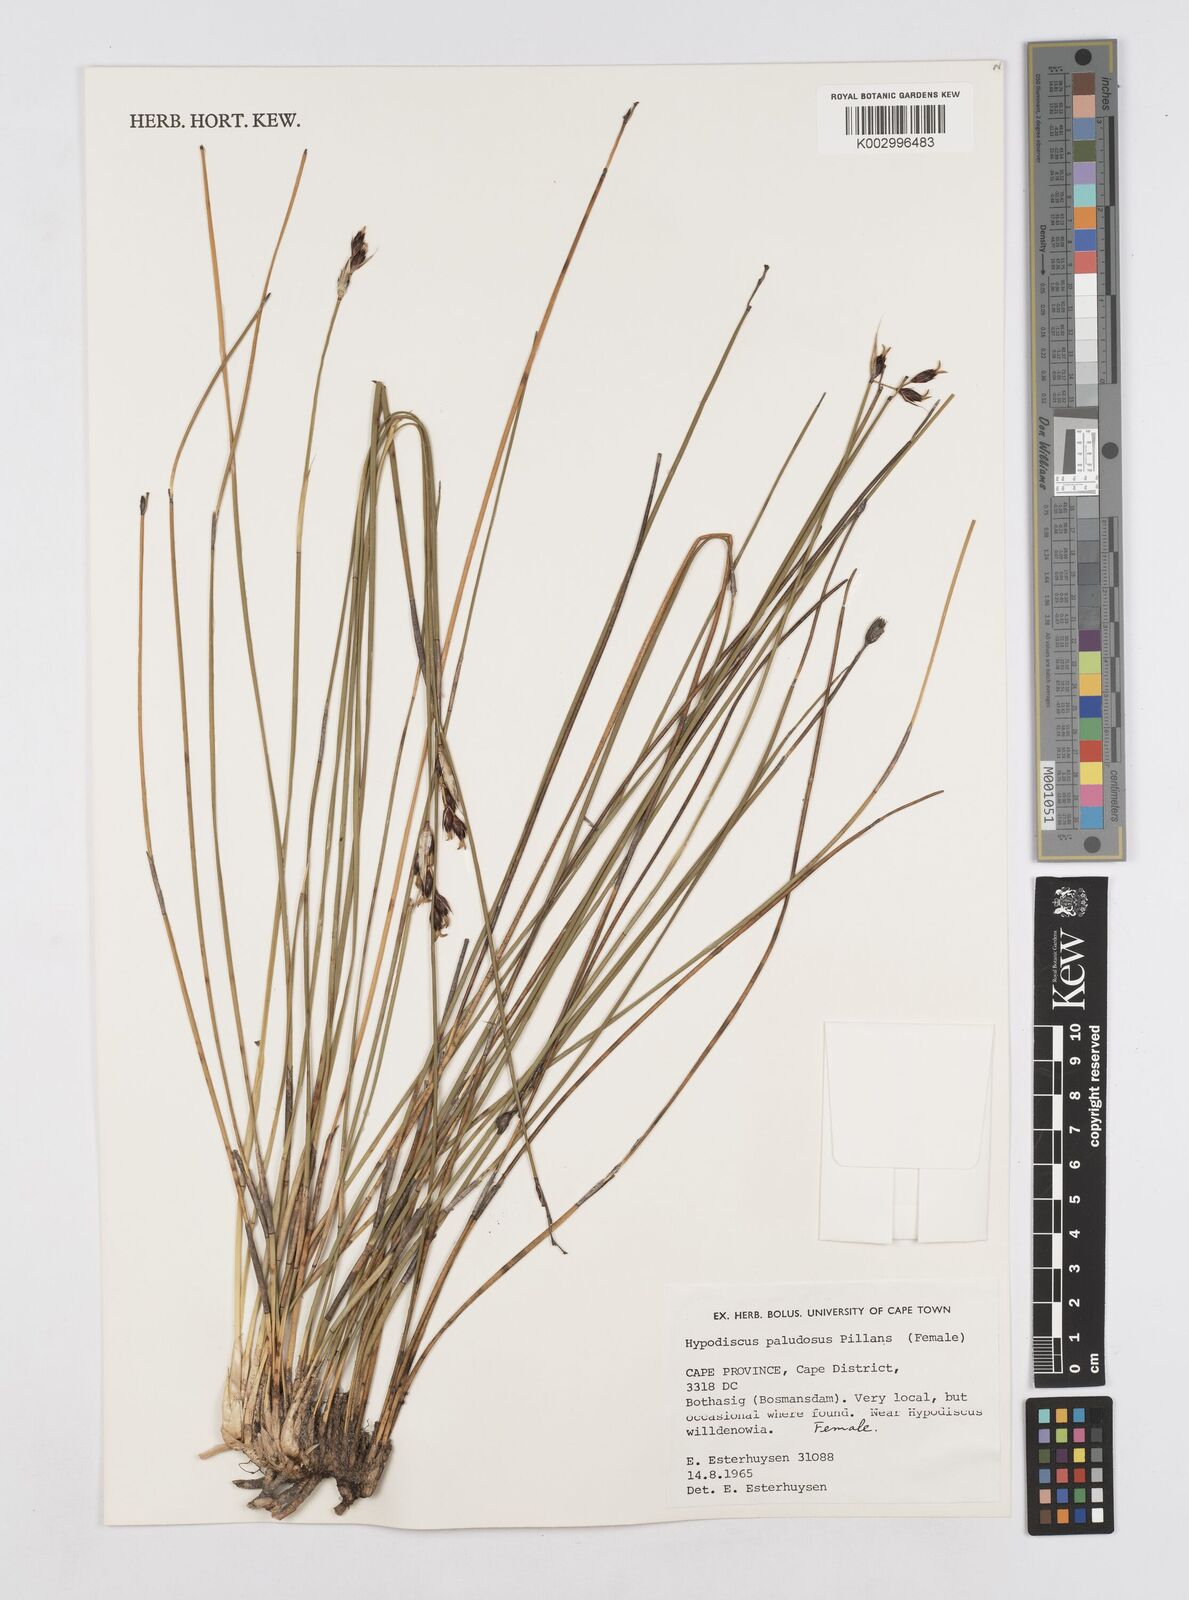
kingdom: Plantae
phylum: Tracheophyta
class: Liliopsida
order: Poales
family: Restionaceae
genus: Hypodiscus
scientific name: Hypodiscus rugosus
